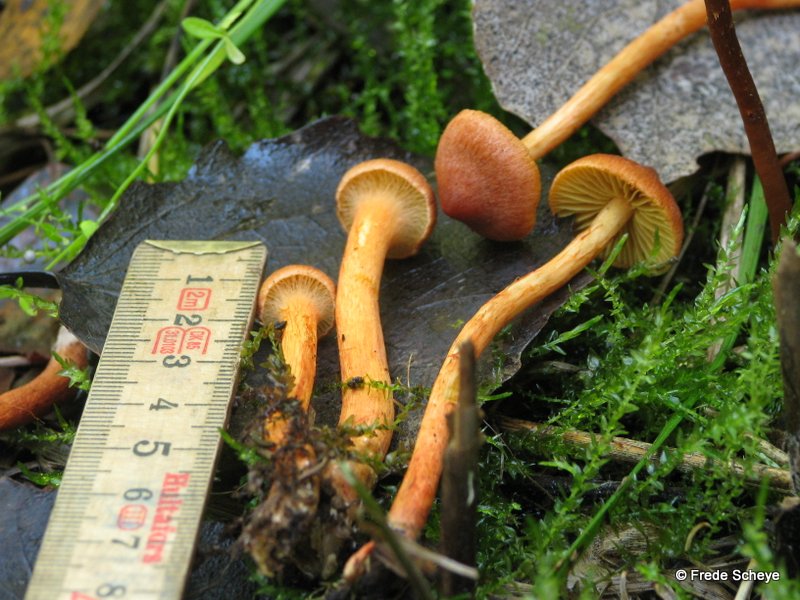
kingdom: Fungi
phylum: Basidiomycota
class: Agaricomycetes
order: Agaricales
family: Cortinariaceae
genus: Cortinarius
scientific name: Cortinarius uliginosus
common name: mose-slørhat
